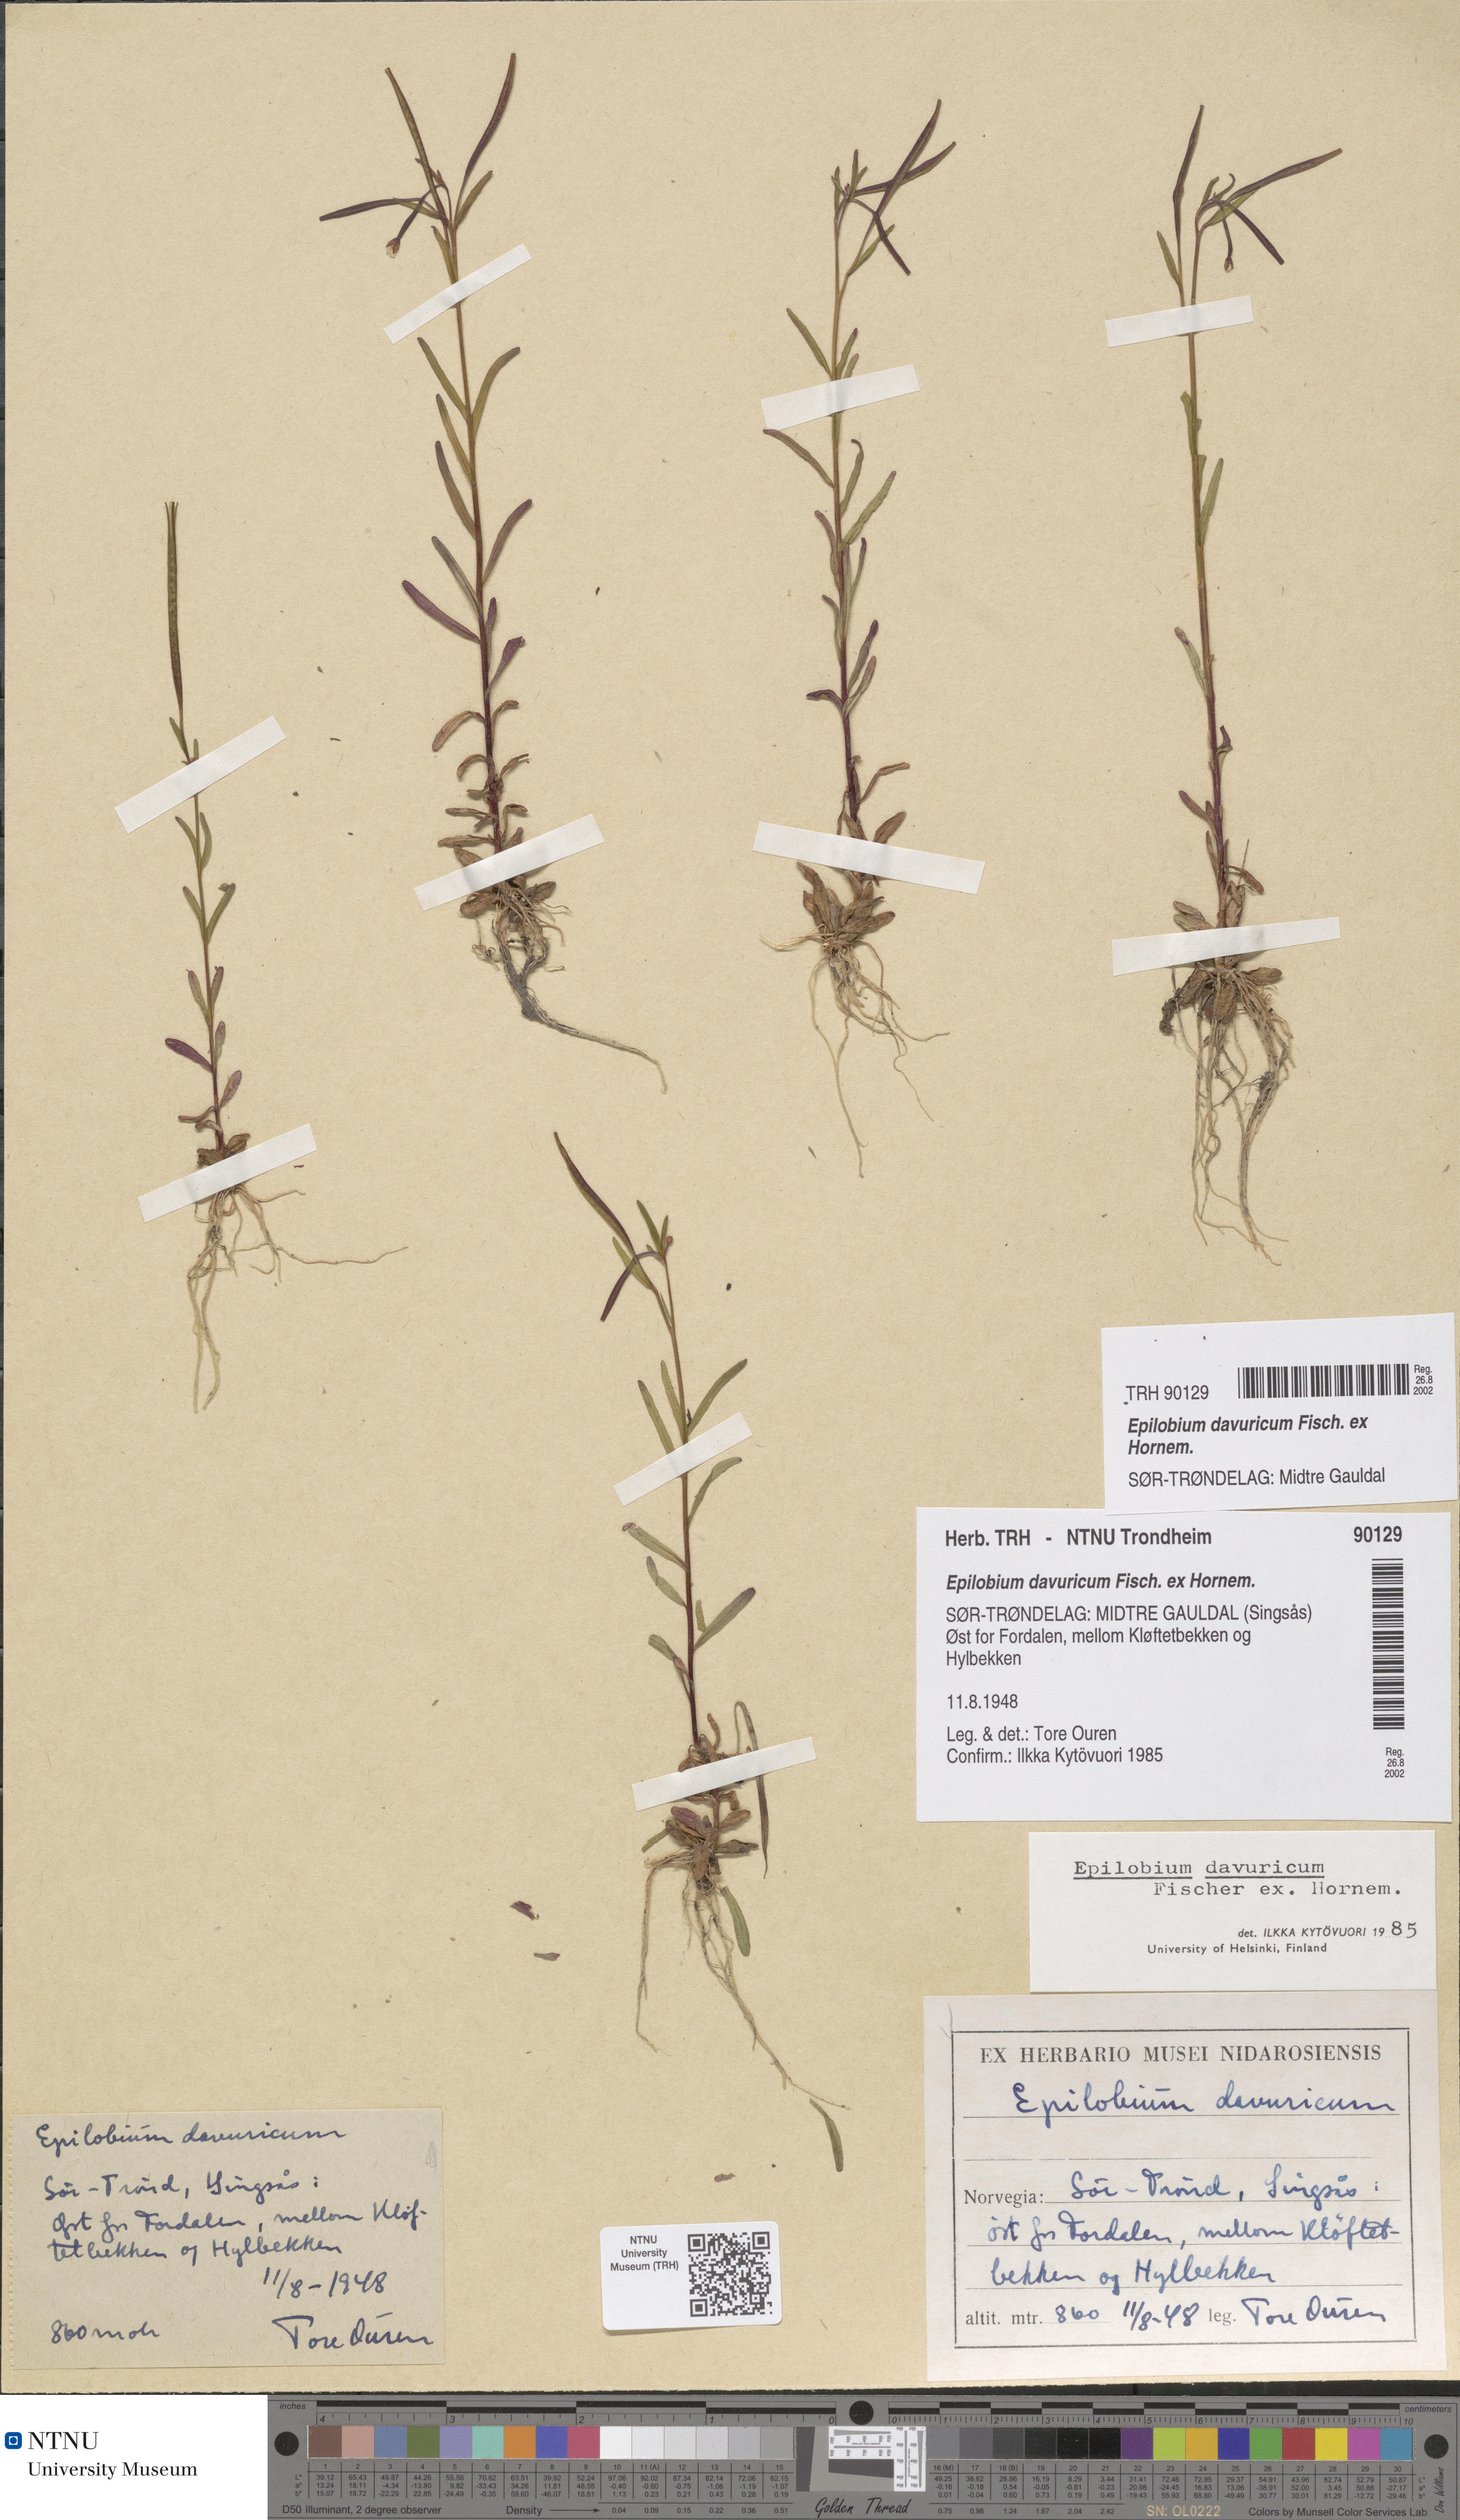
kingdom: Plantae
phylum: Tracheophyta
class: Magnoliopsida
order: Myrtales
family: Onagraceae
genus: Epilobium
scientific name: Epilobium davuricum
